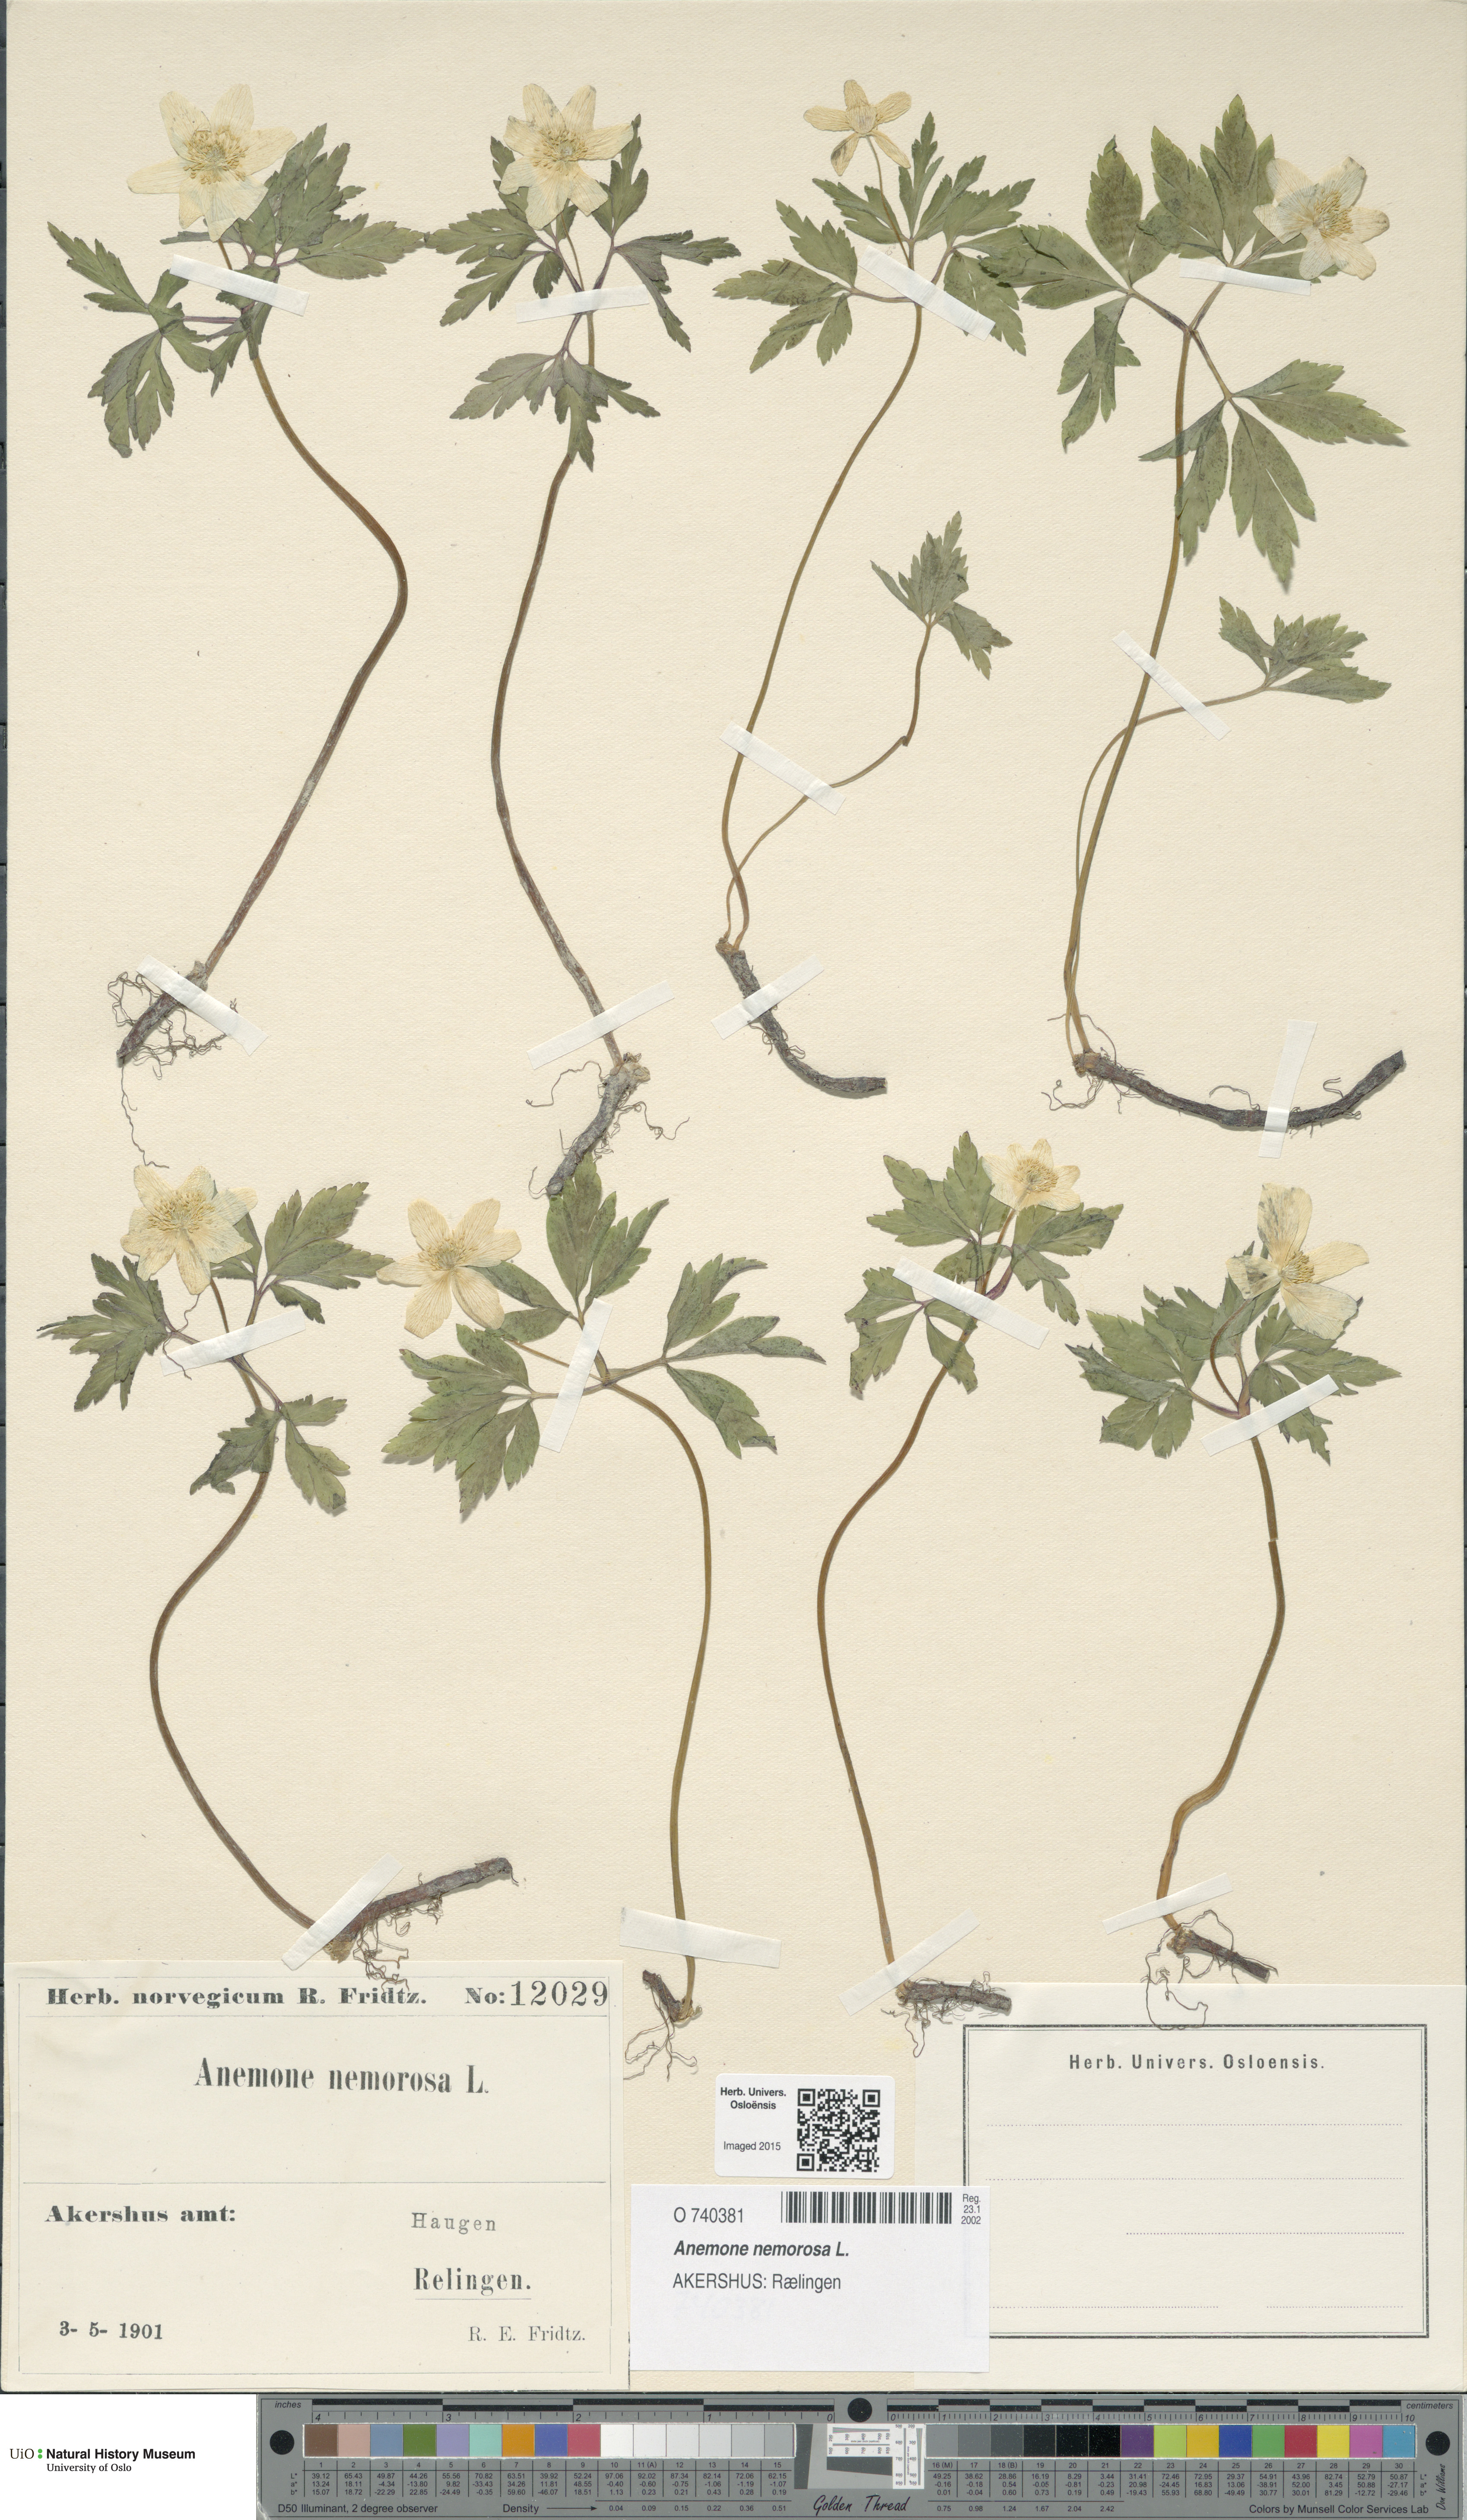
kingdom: Plantae
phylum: Tracheophyta
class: Magnoliopsida
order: Ranunculales
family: Ranunculaceae
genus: Anemone
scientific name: Anemone nemorosa
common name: Wood anemone
